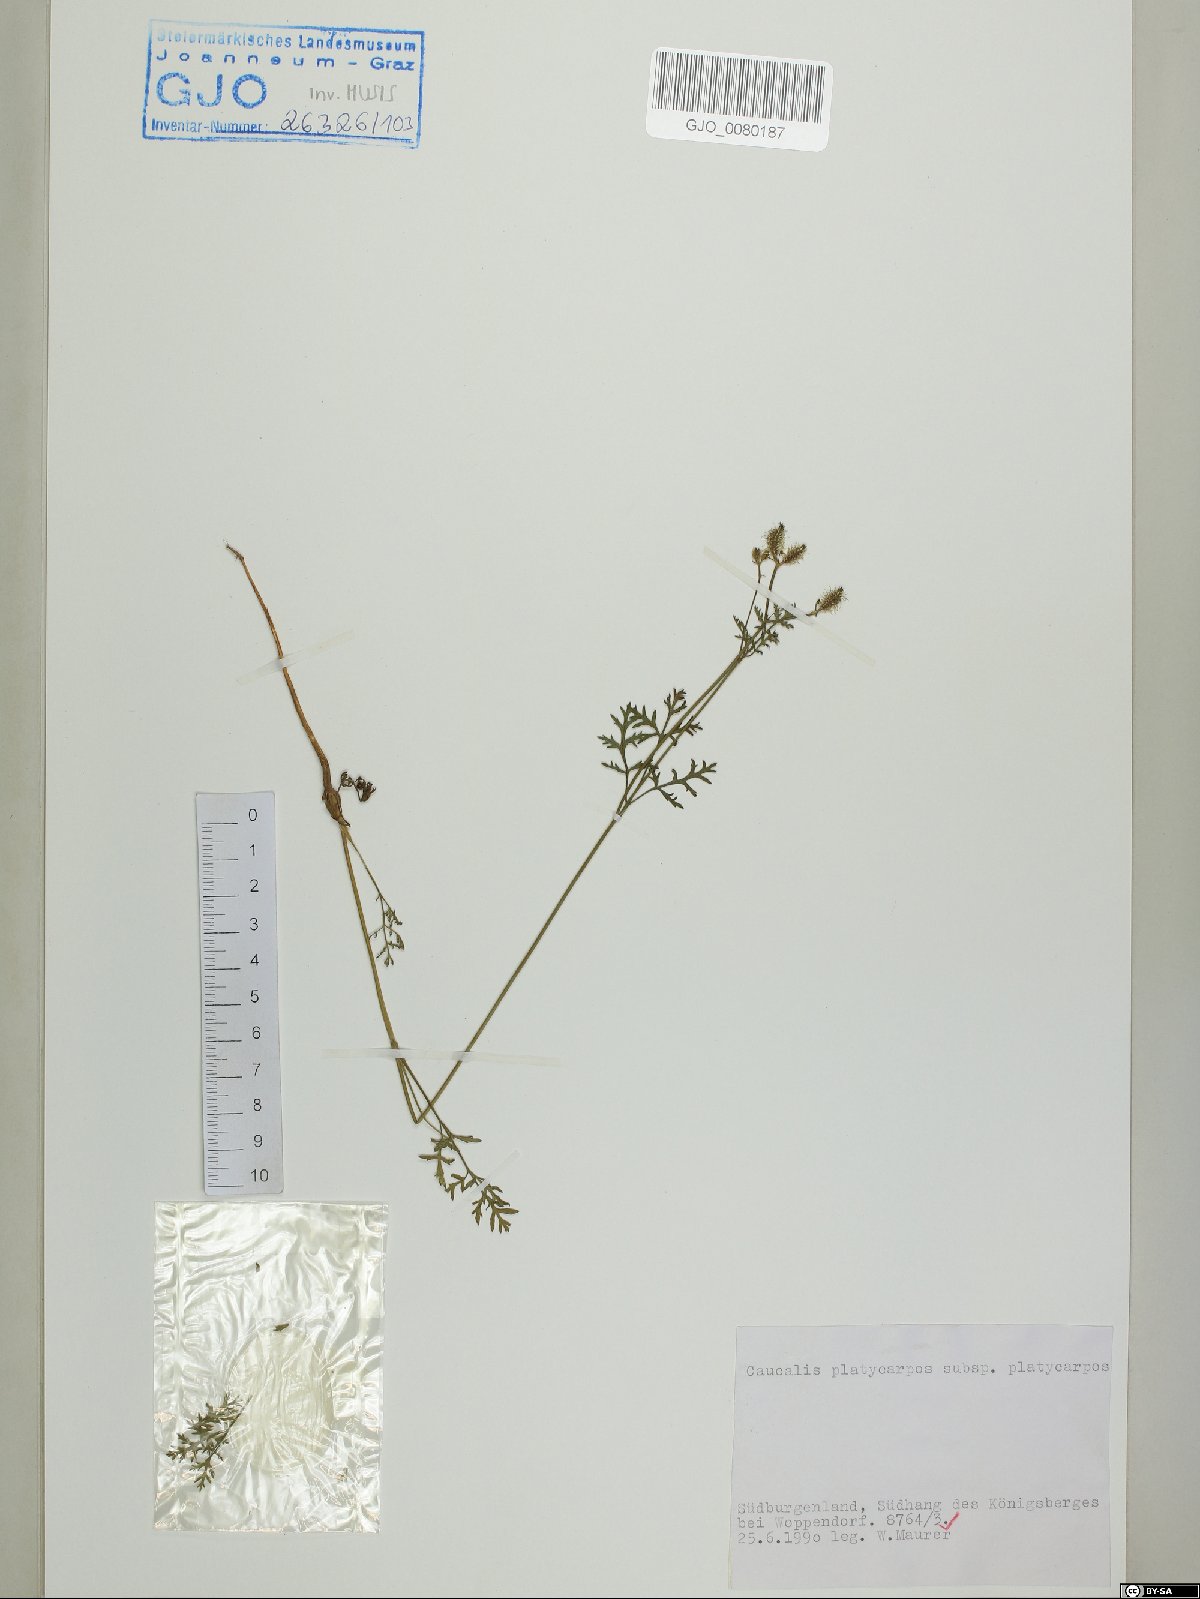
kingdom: Plantae
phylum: Tracheophyta
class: Magnoliopsida
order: Apiales
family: Apiaceae
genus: Caucalis
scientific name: Caucalis platycarpos
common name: Small bur-parsley
